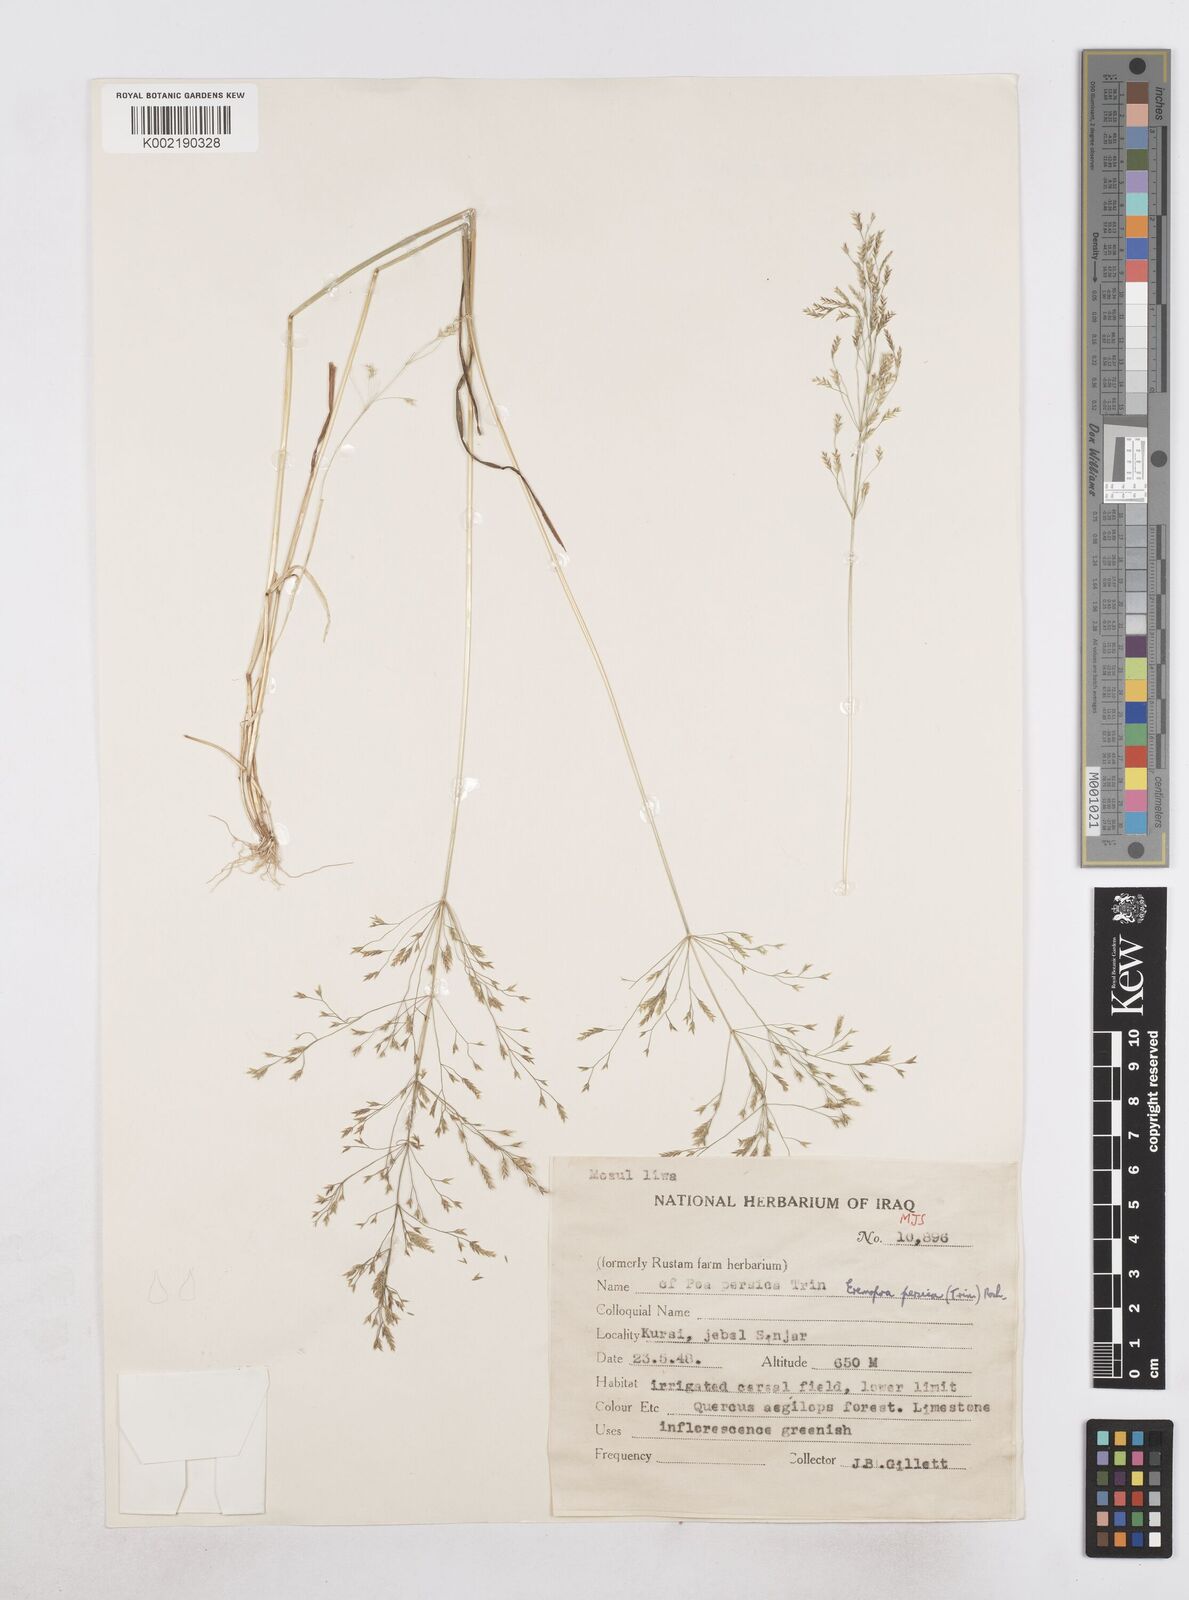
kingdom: Plantae
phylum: Tracheophyta
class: Liliopsida
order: Poales
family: Poaceae
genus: Poa
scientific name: Poa persica
